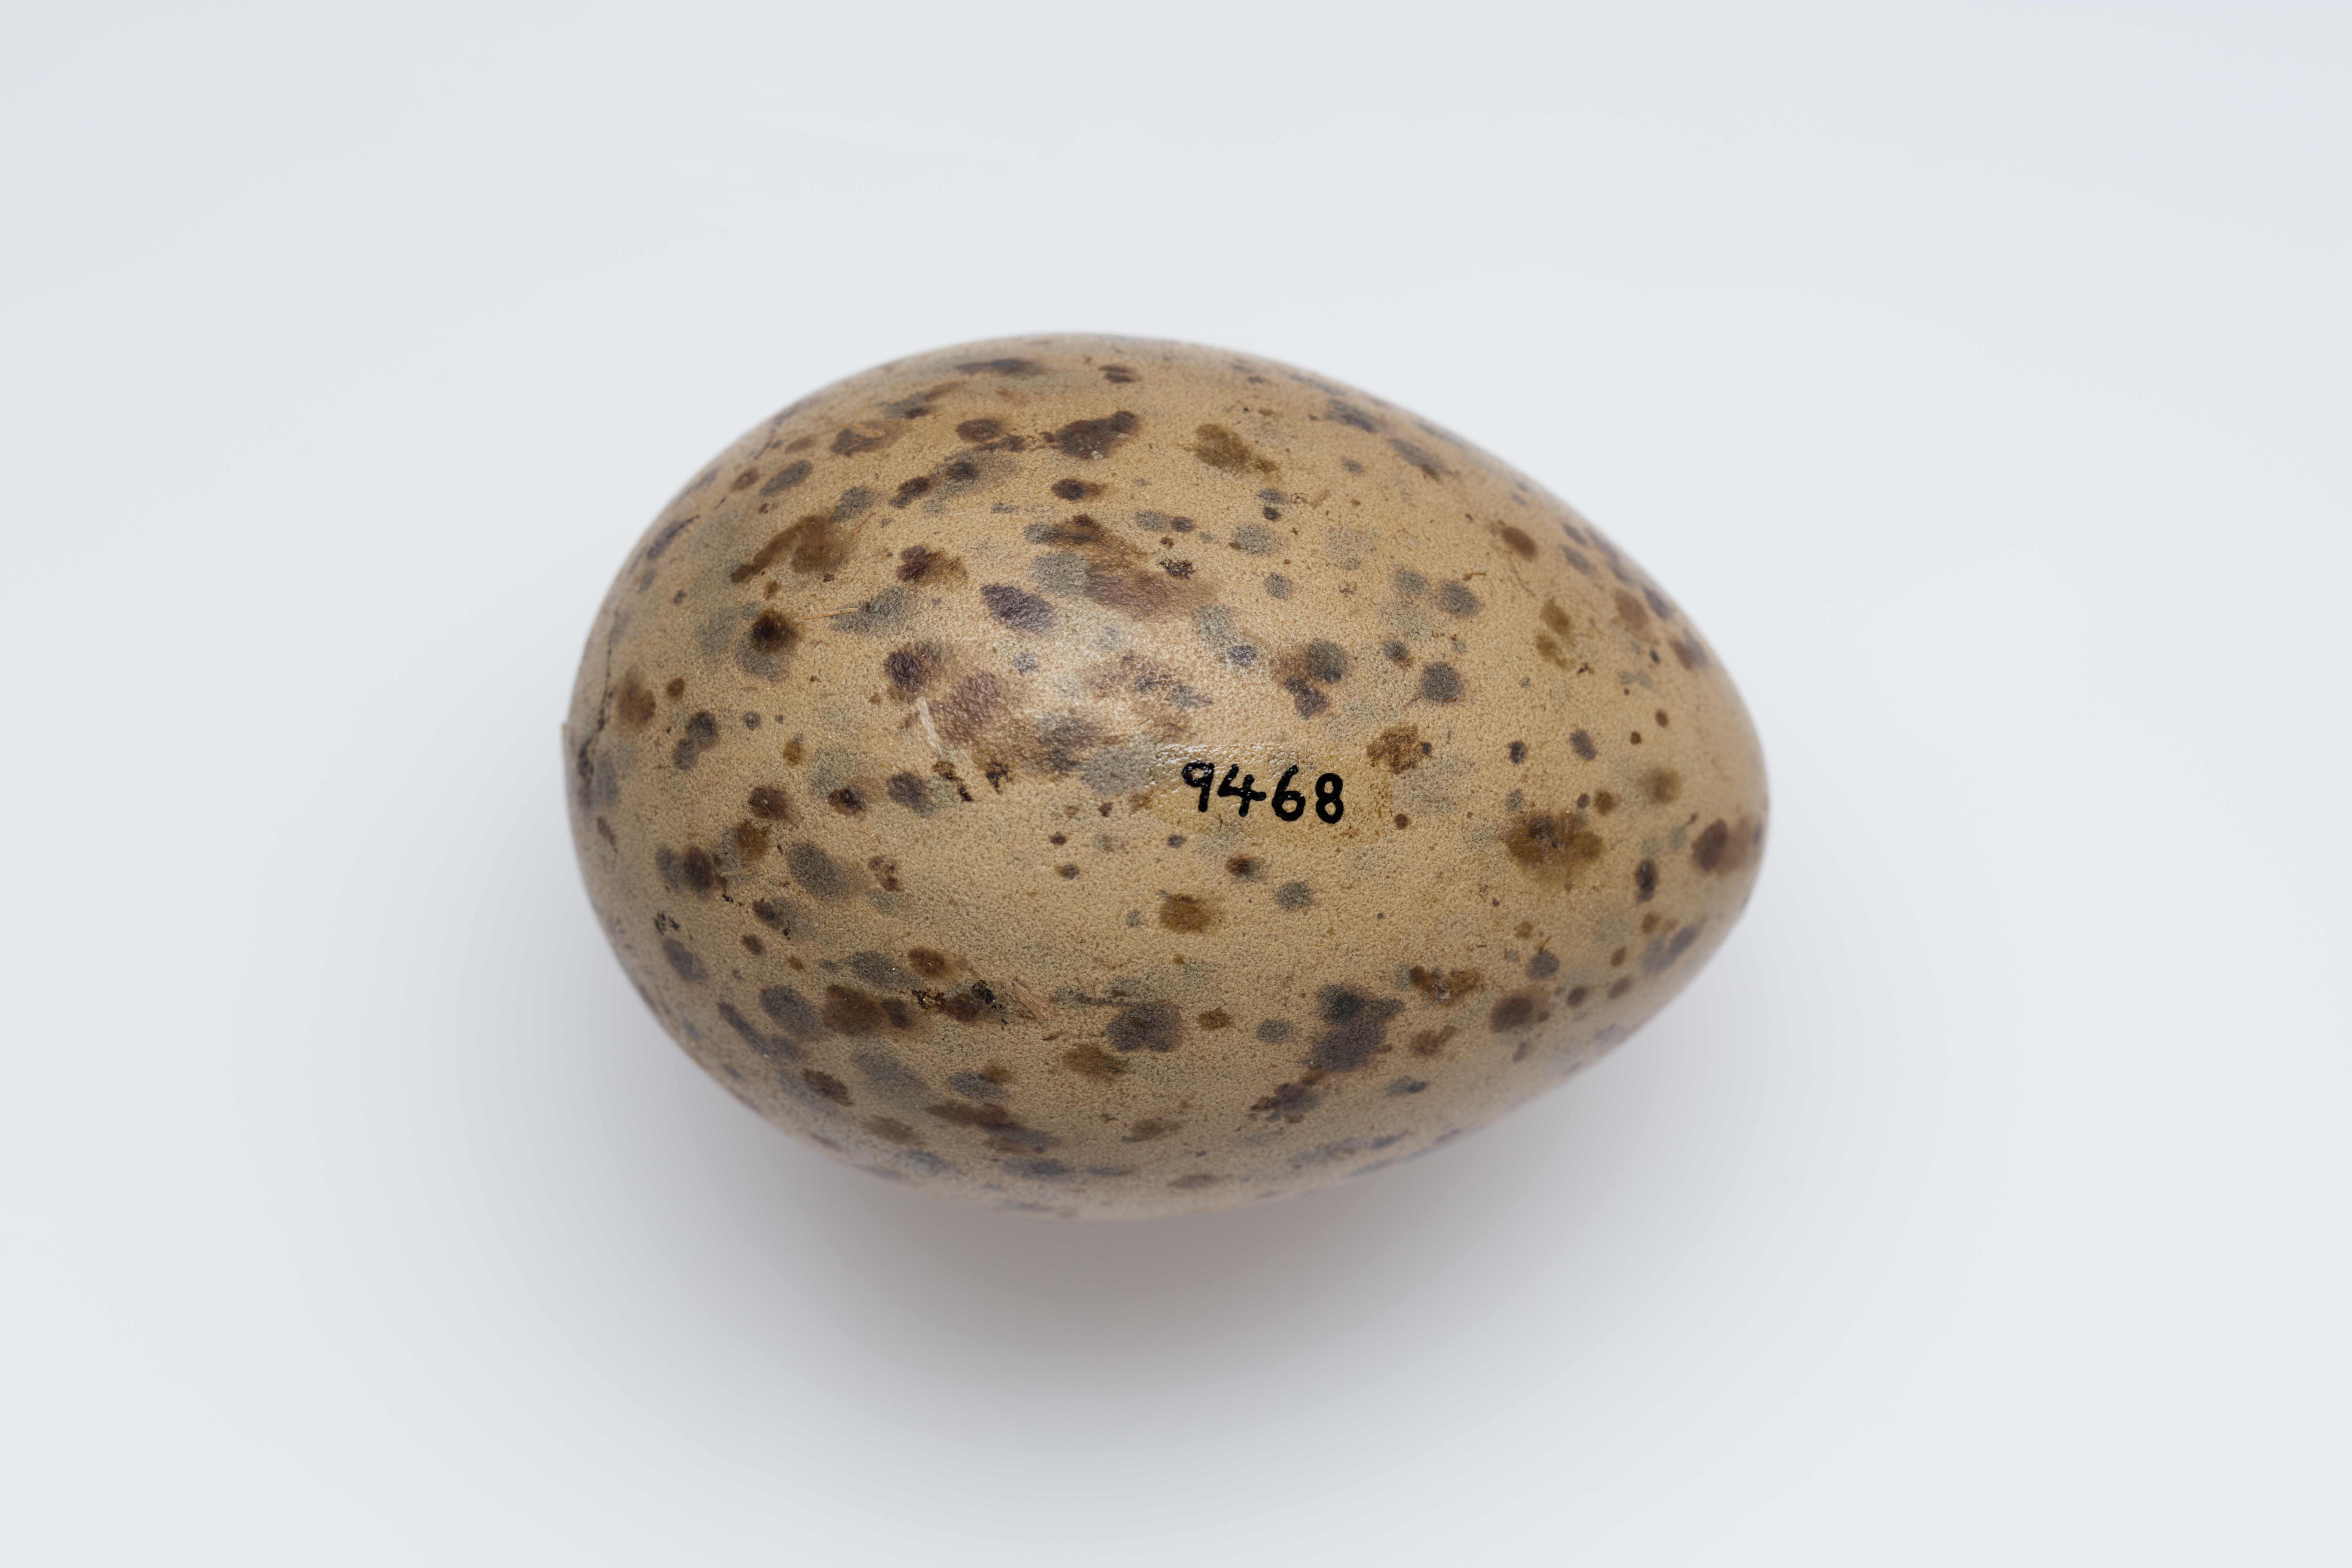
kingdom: Animalia
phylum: Chordata
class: Aves
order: Charadriiformes
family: Laridae
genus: Larus
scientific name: Larus dominicanus
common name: Kelp gull
